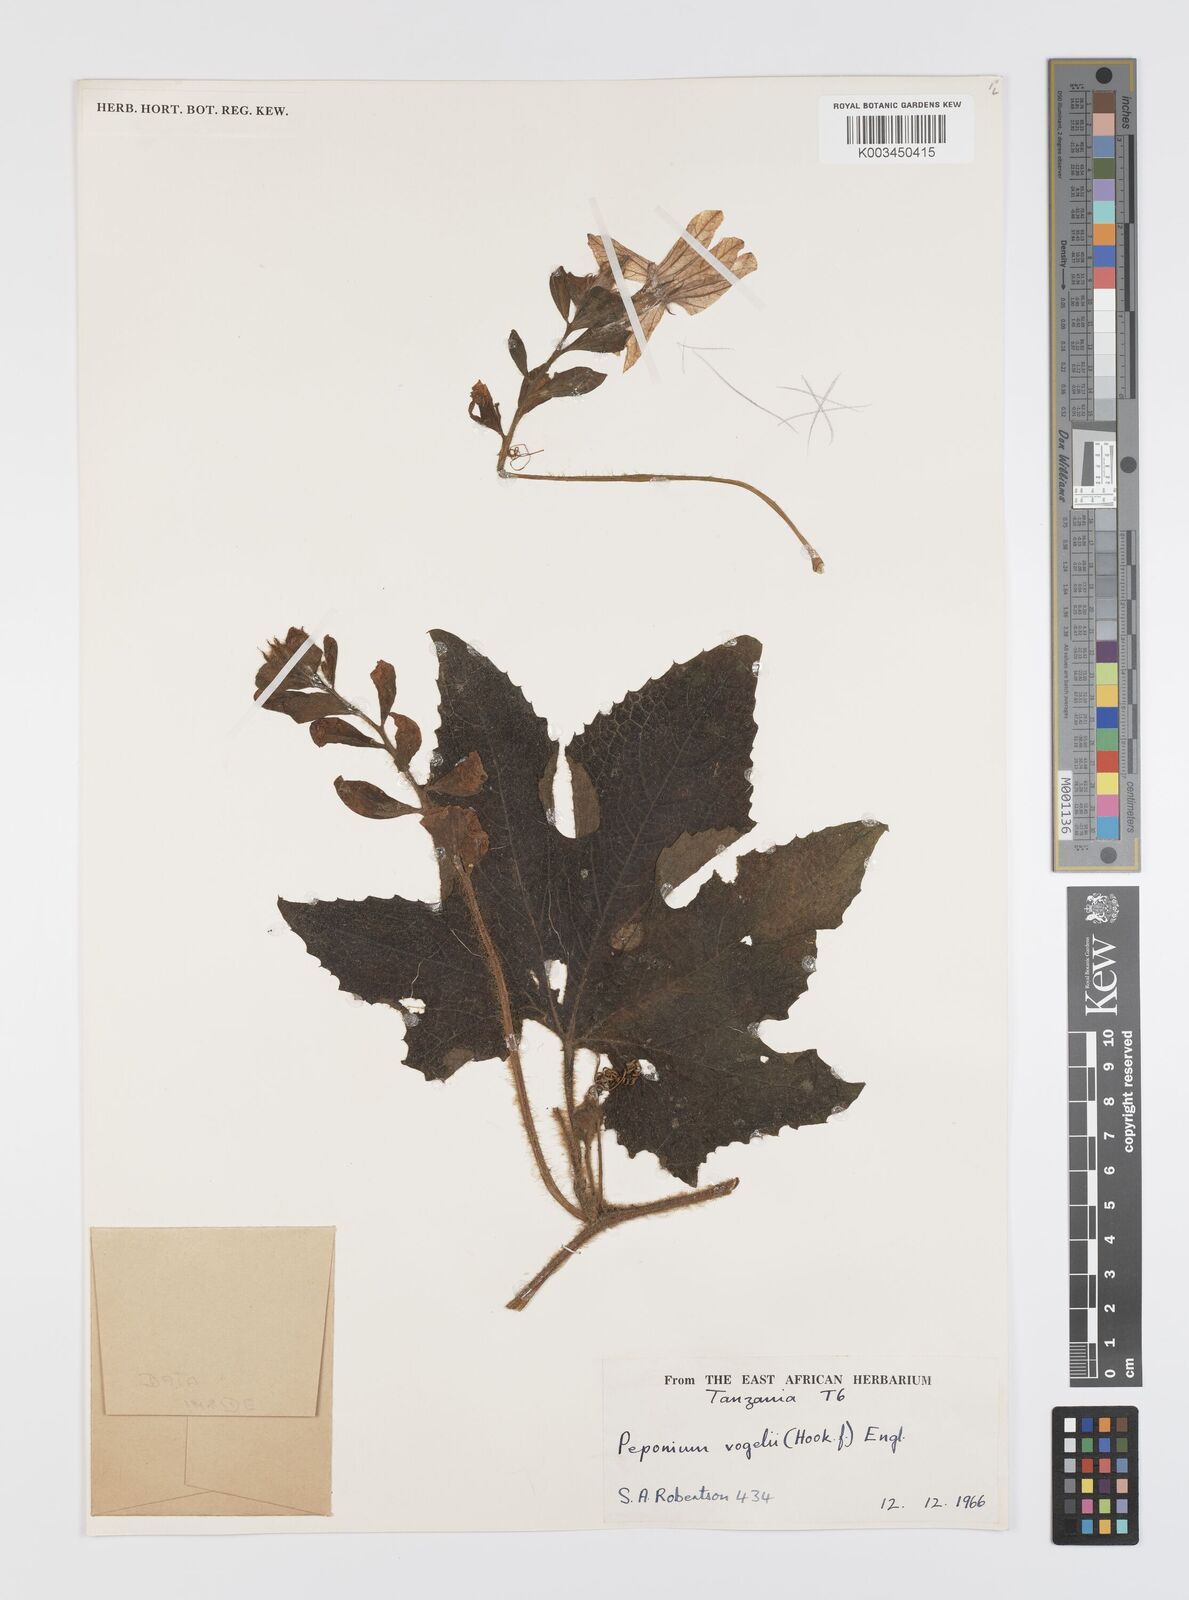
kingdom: Plantae
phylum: Tracheophyta
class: Magnoliopsida
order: Cucurbitales
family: Cucurbitaceae
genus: Peponium
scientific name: Peponium vogelii
